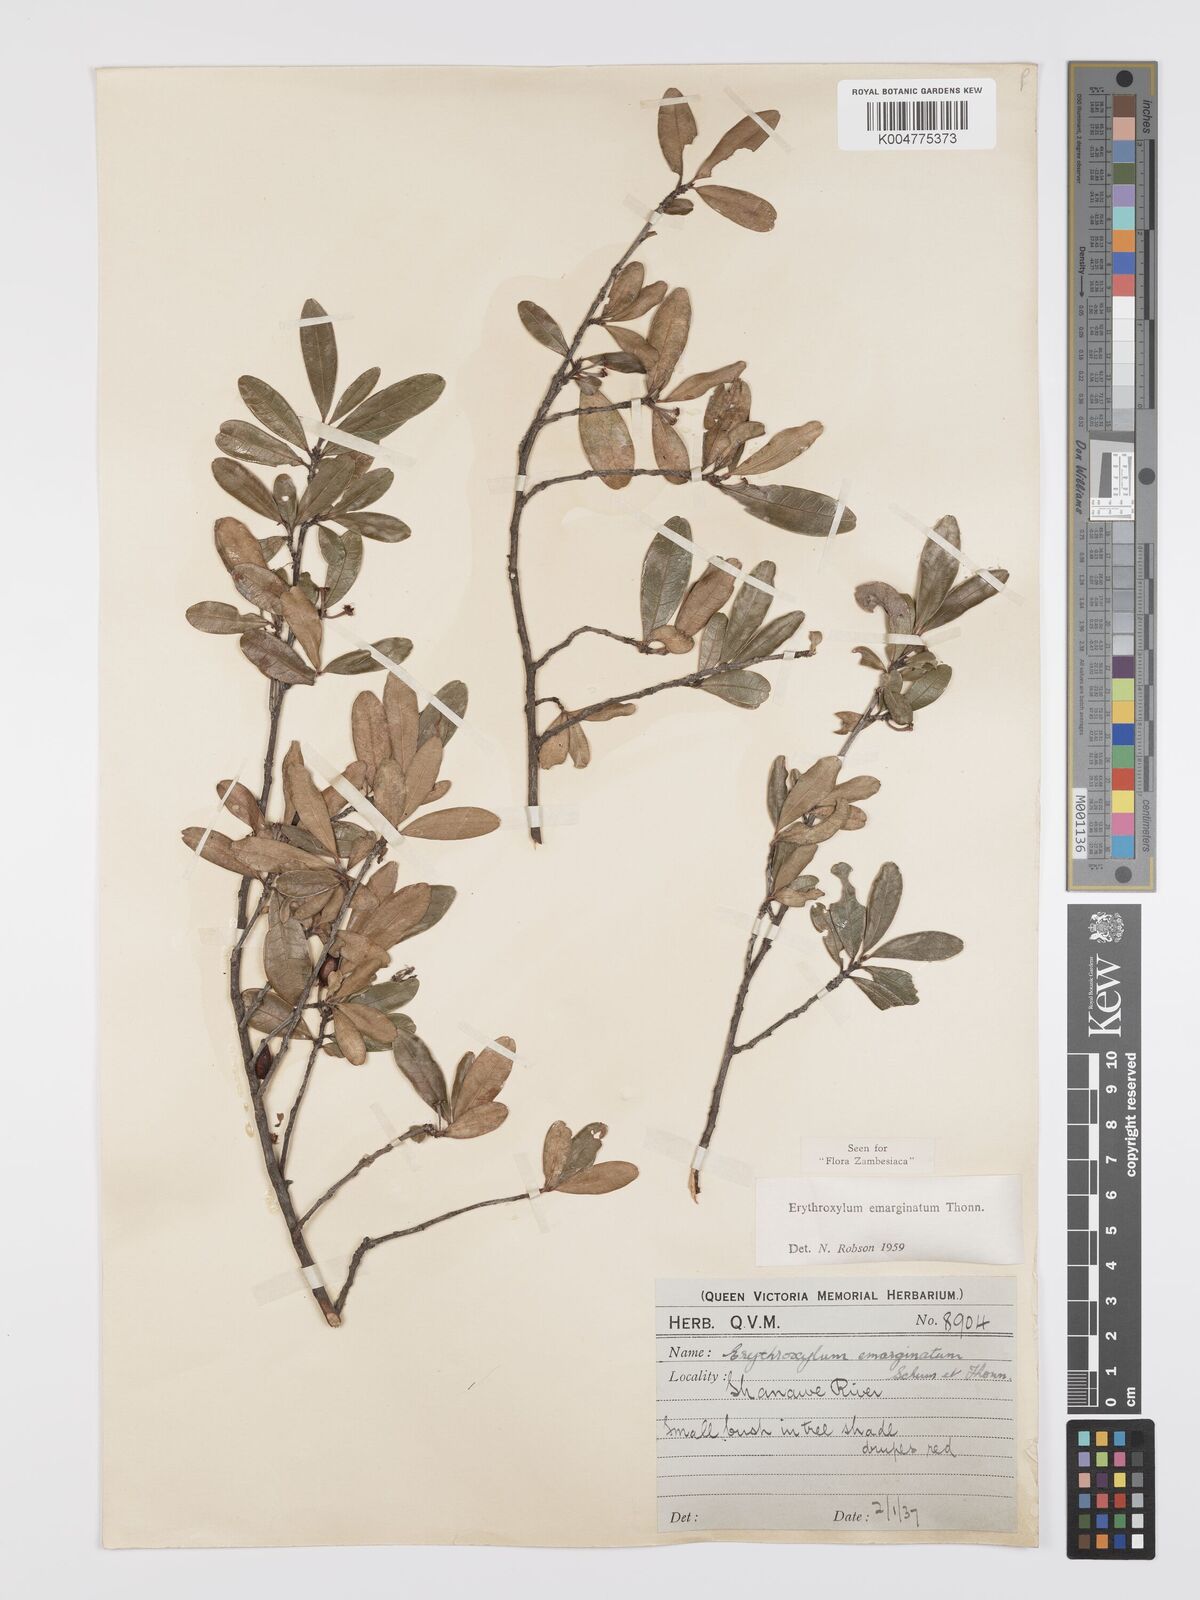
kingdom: Plantae
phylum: Tracheophyta
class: Magnoliopsida
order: Malpighiales
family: Erythroxylaceae
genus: Erythroxylum
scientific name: Erythroxylum emarginatum
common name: African coca-tree
